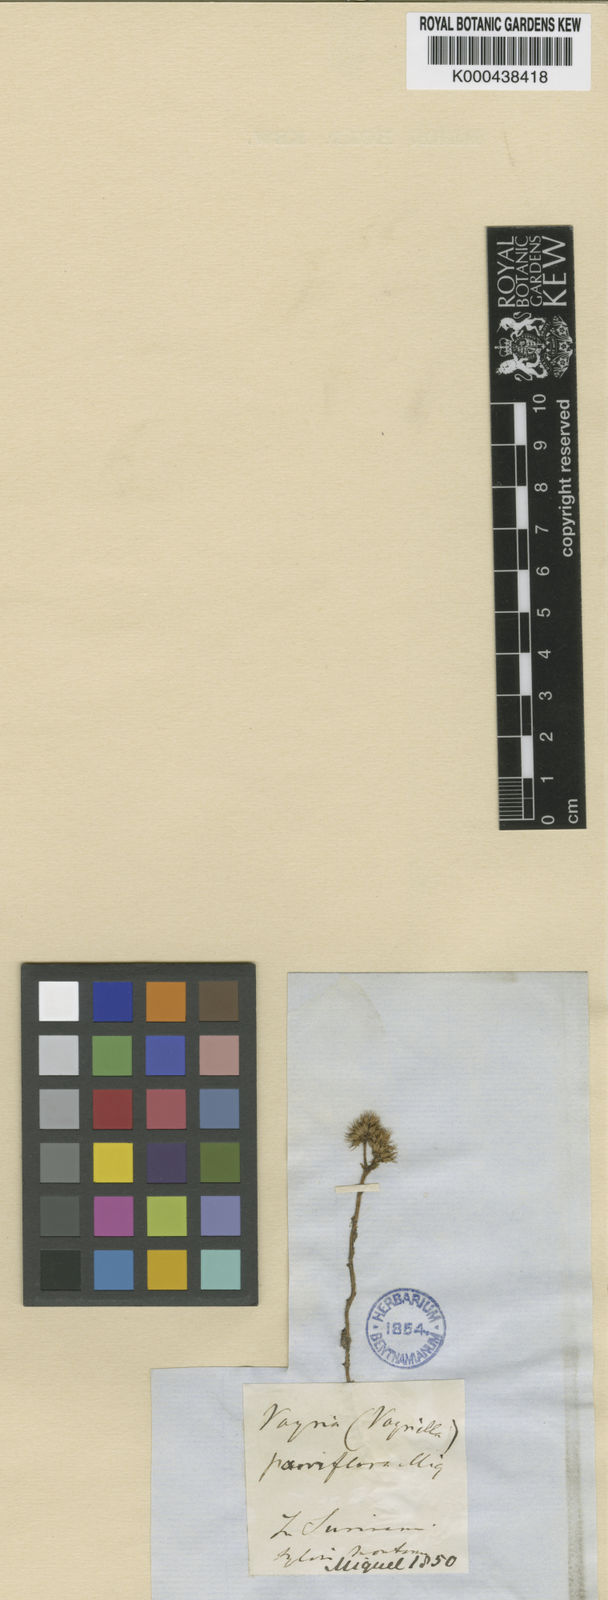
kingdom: Plantae
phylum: Tracheophyta
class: Magnoliopsida
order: Gentianales
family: Gentianaceae
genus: Voyriella
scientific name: Voyriella parviflora
